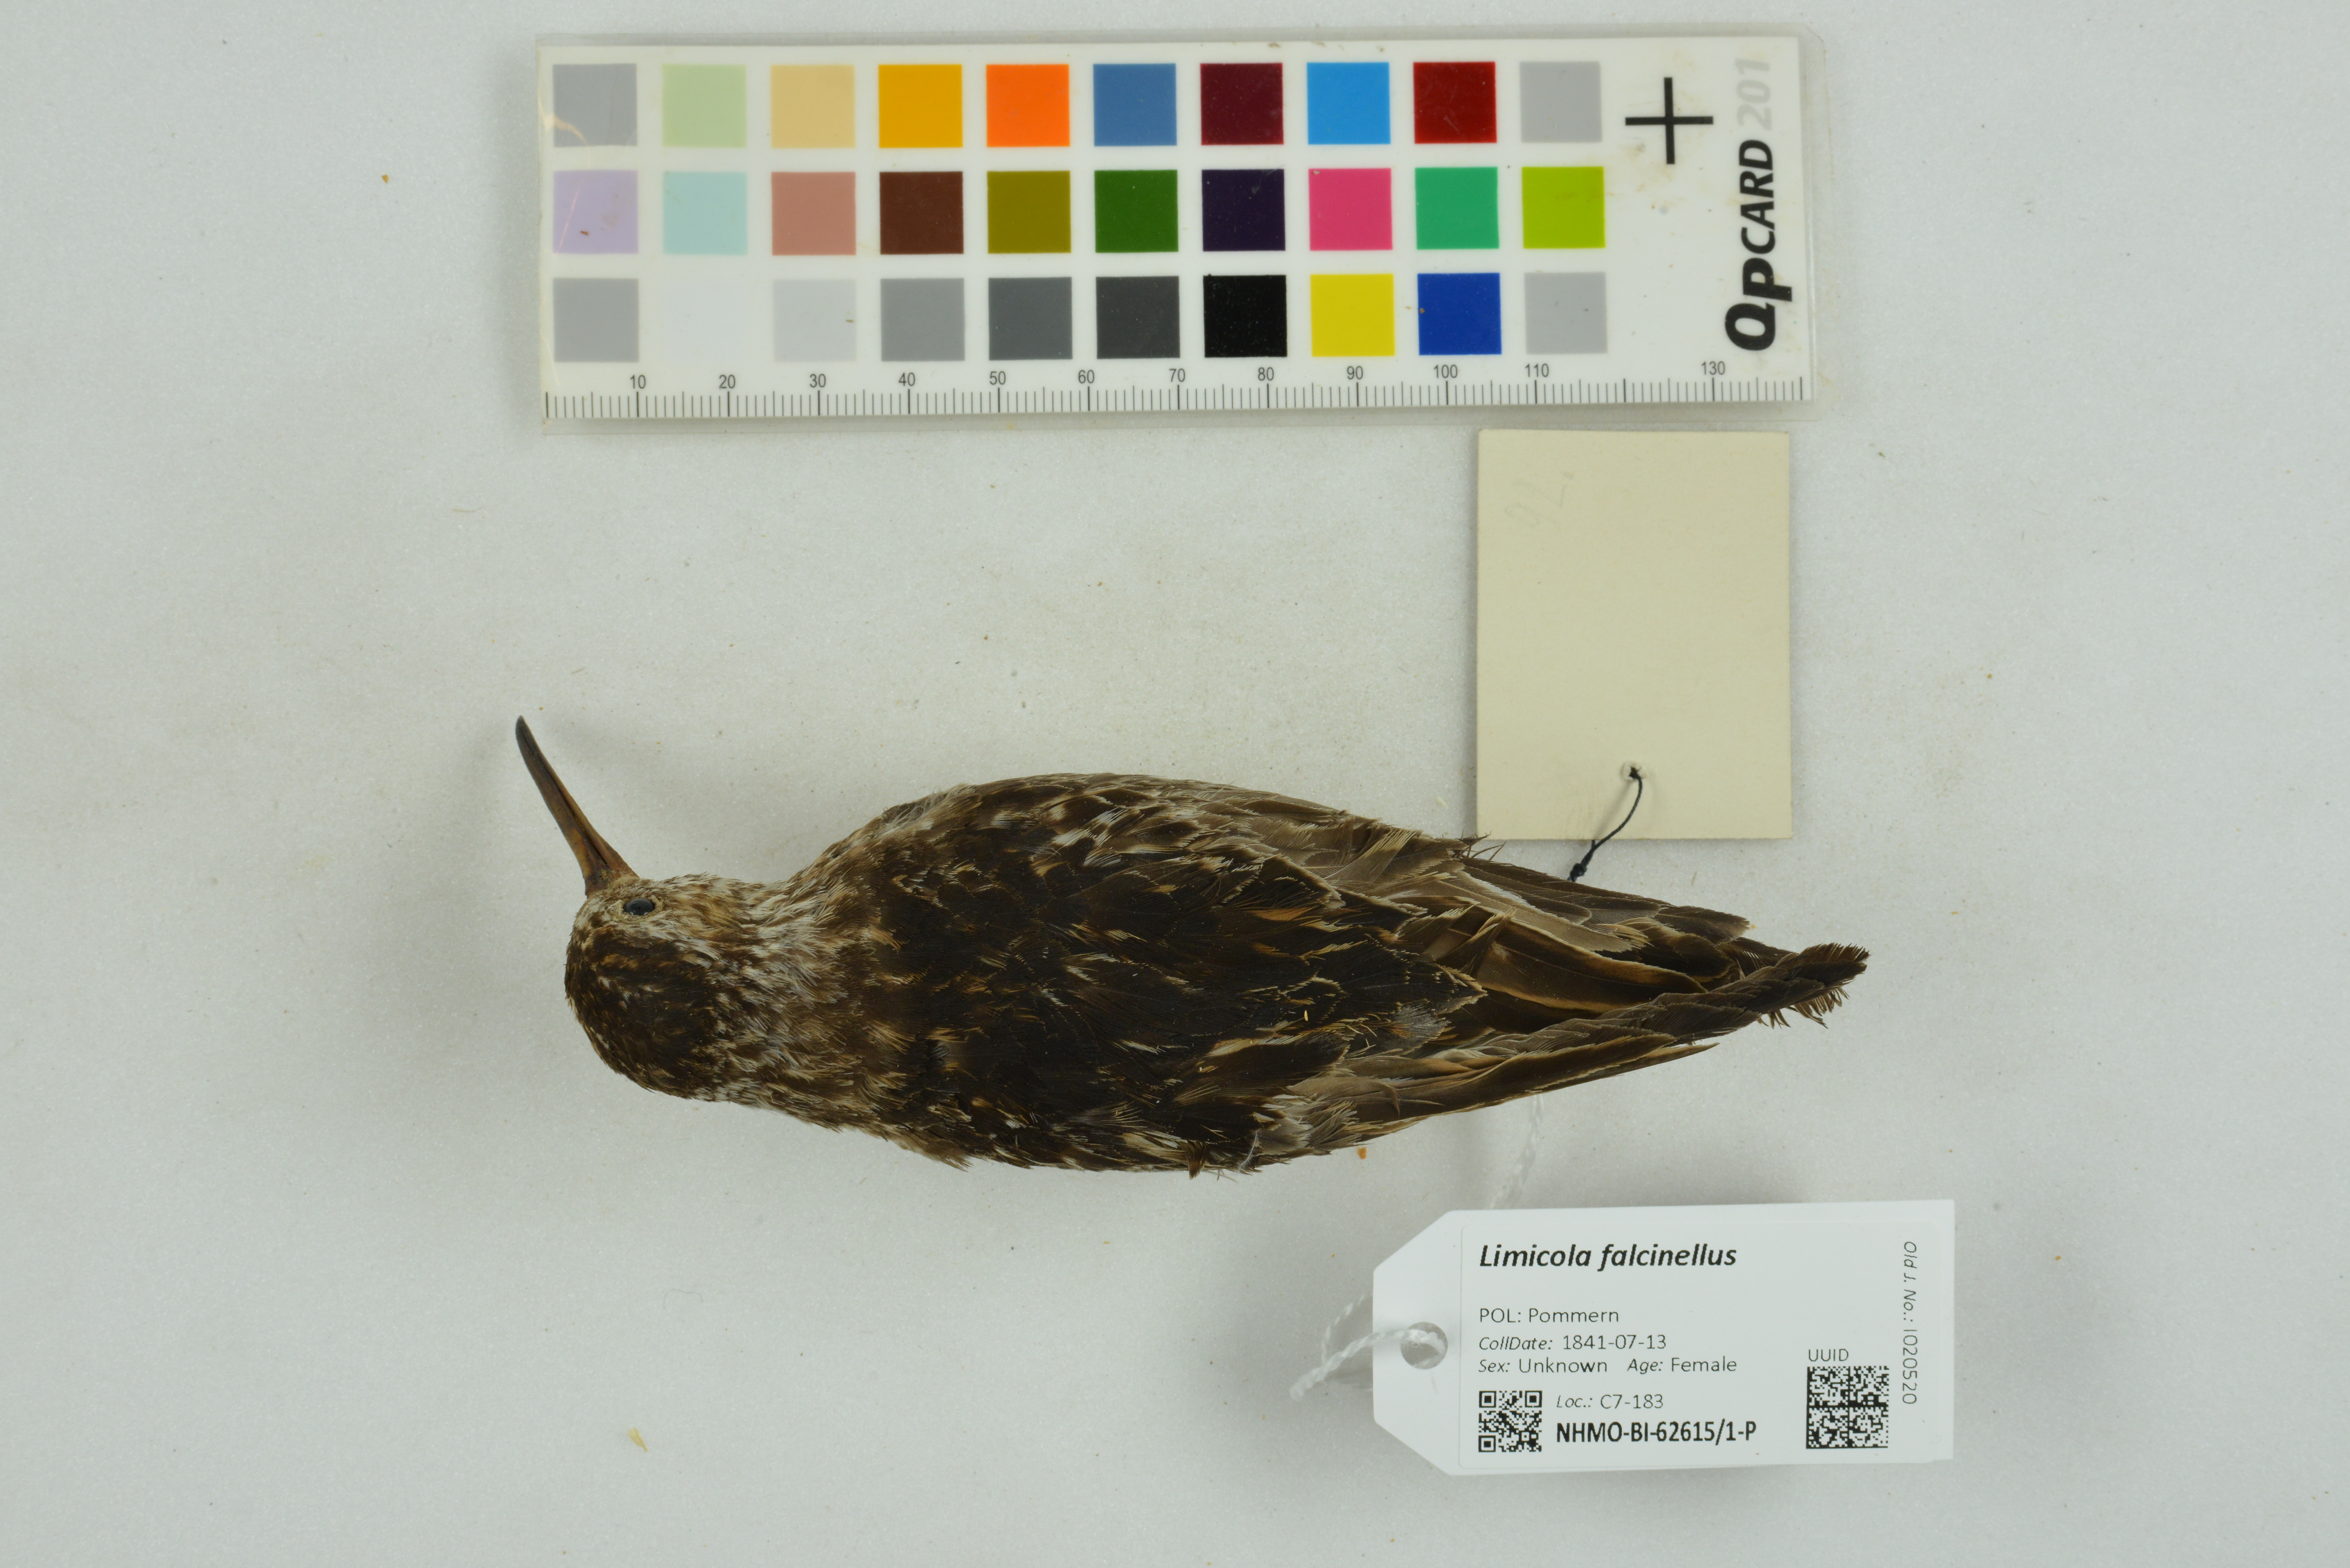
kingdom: Animalia
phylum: Chordata
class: Aves
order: Charadriiformes
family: Scolopacidae
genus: Calidris
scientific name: Calidris falcinellus
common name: Broad-billed sandpiper
